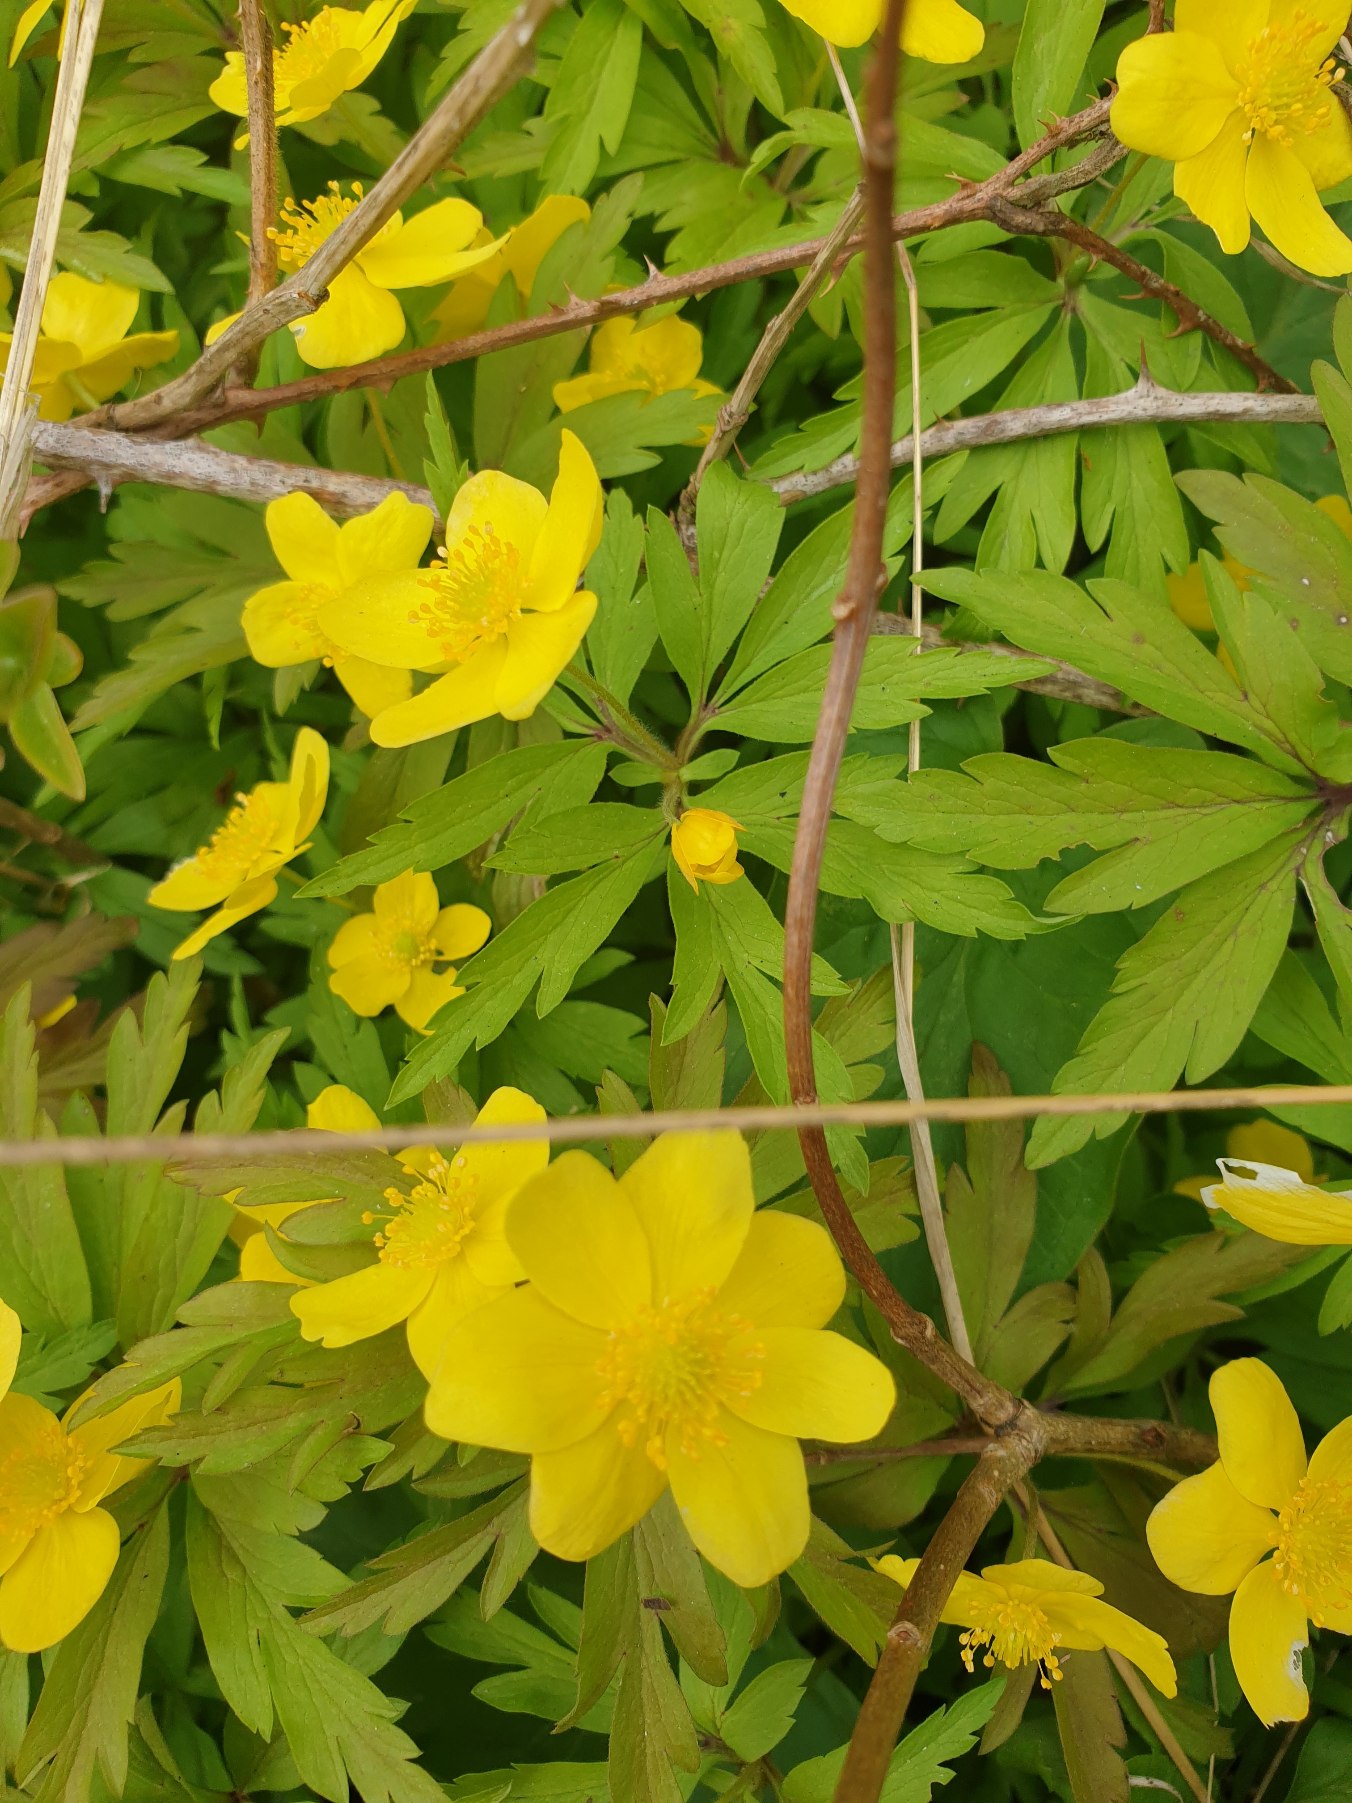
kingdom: Plantae
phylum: Tracheophyta
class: Magnoliopsida
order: Ranunculales
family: Ranunculaceae
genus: Anemone
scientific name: Anemone ranunculoides
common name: Gul anemone
